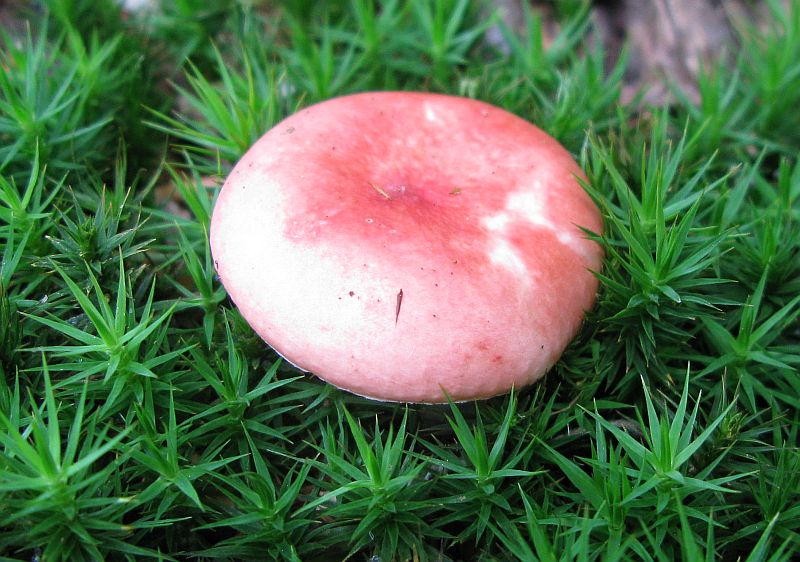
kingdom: Fungi
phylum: Basidiomycota
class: Agaricomycetes
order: Russulales
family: Russulaceae
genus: Russula
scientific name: Russula nobilis
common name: lille gift-skørhat
